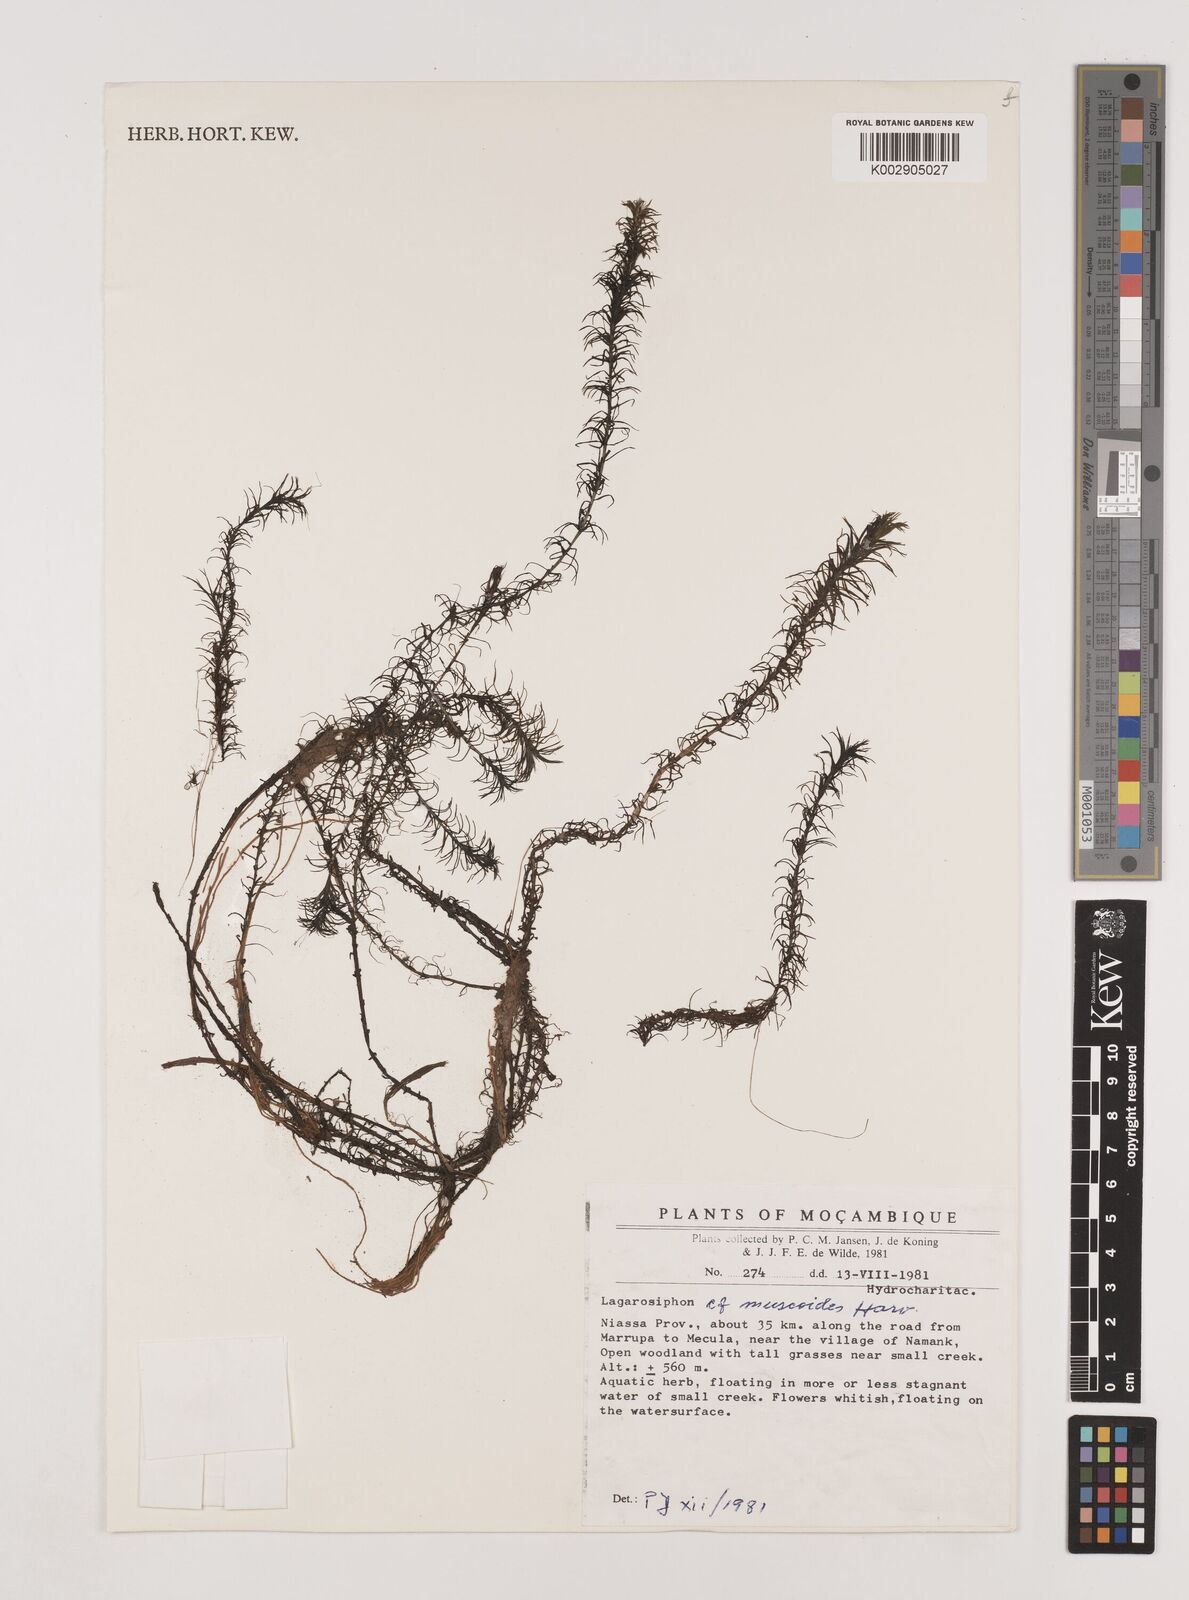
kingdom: Plantae
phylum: Tracheophyta
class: Liliopsida
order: Alismatales
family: Hydrocharitaceae
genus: Lagarosiphon
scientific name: Lagarosiphon muscoides
